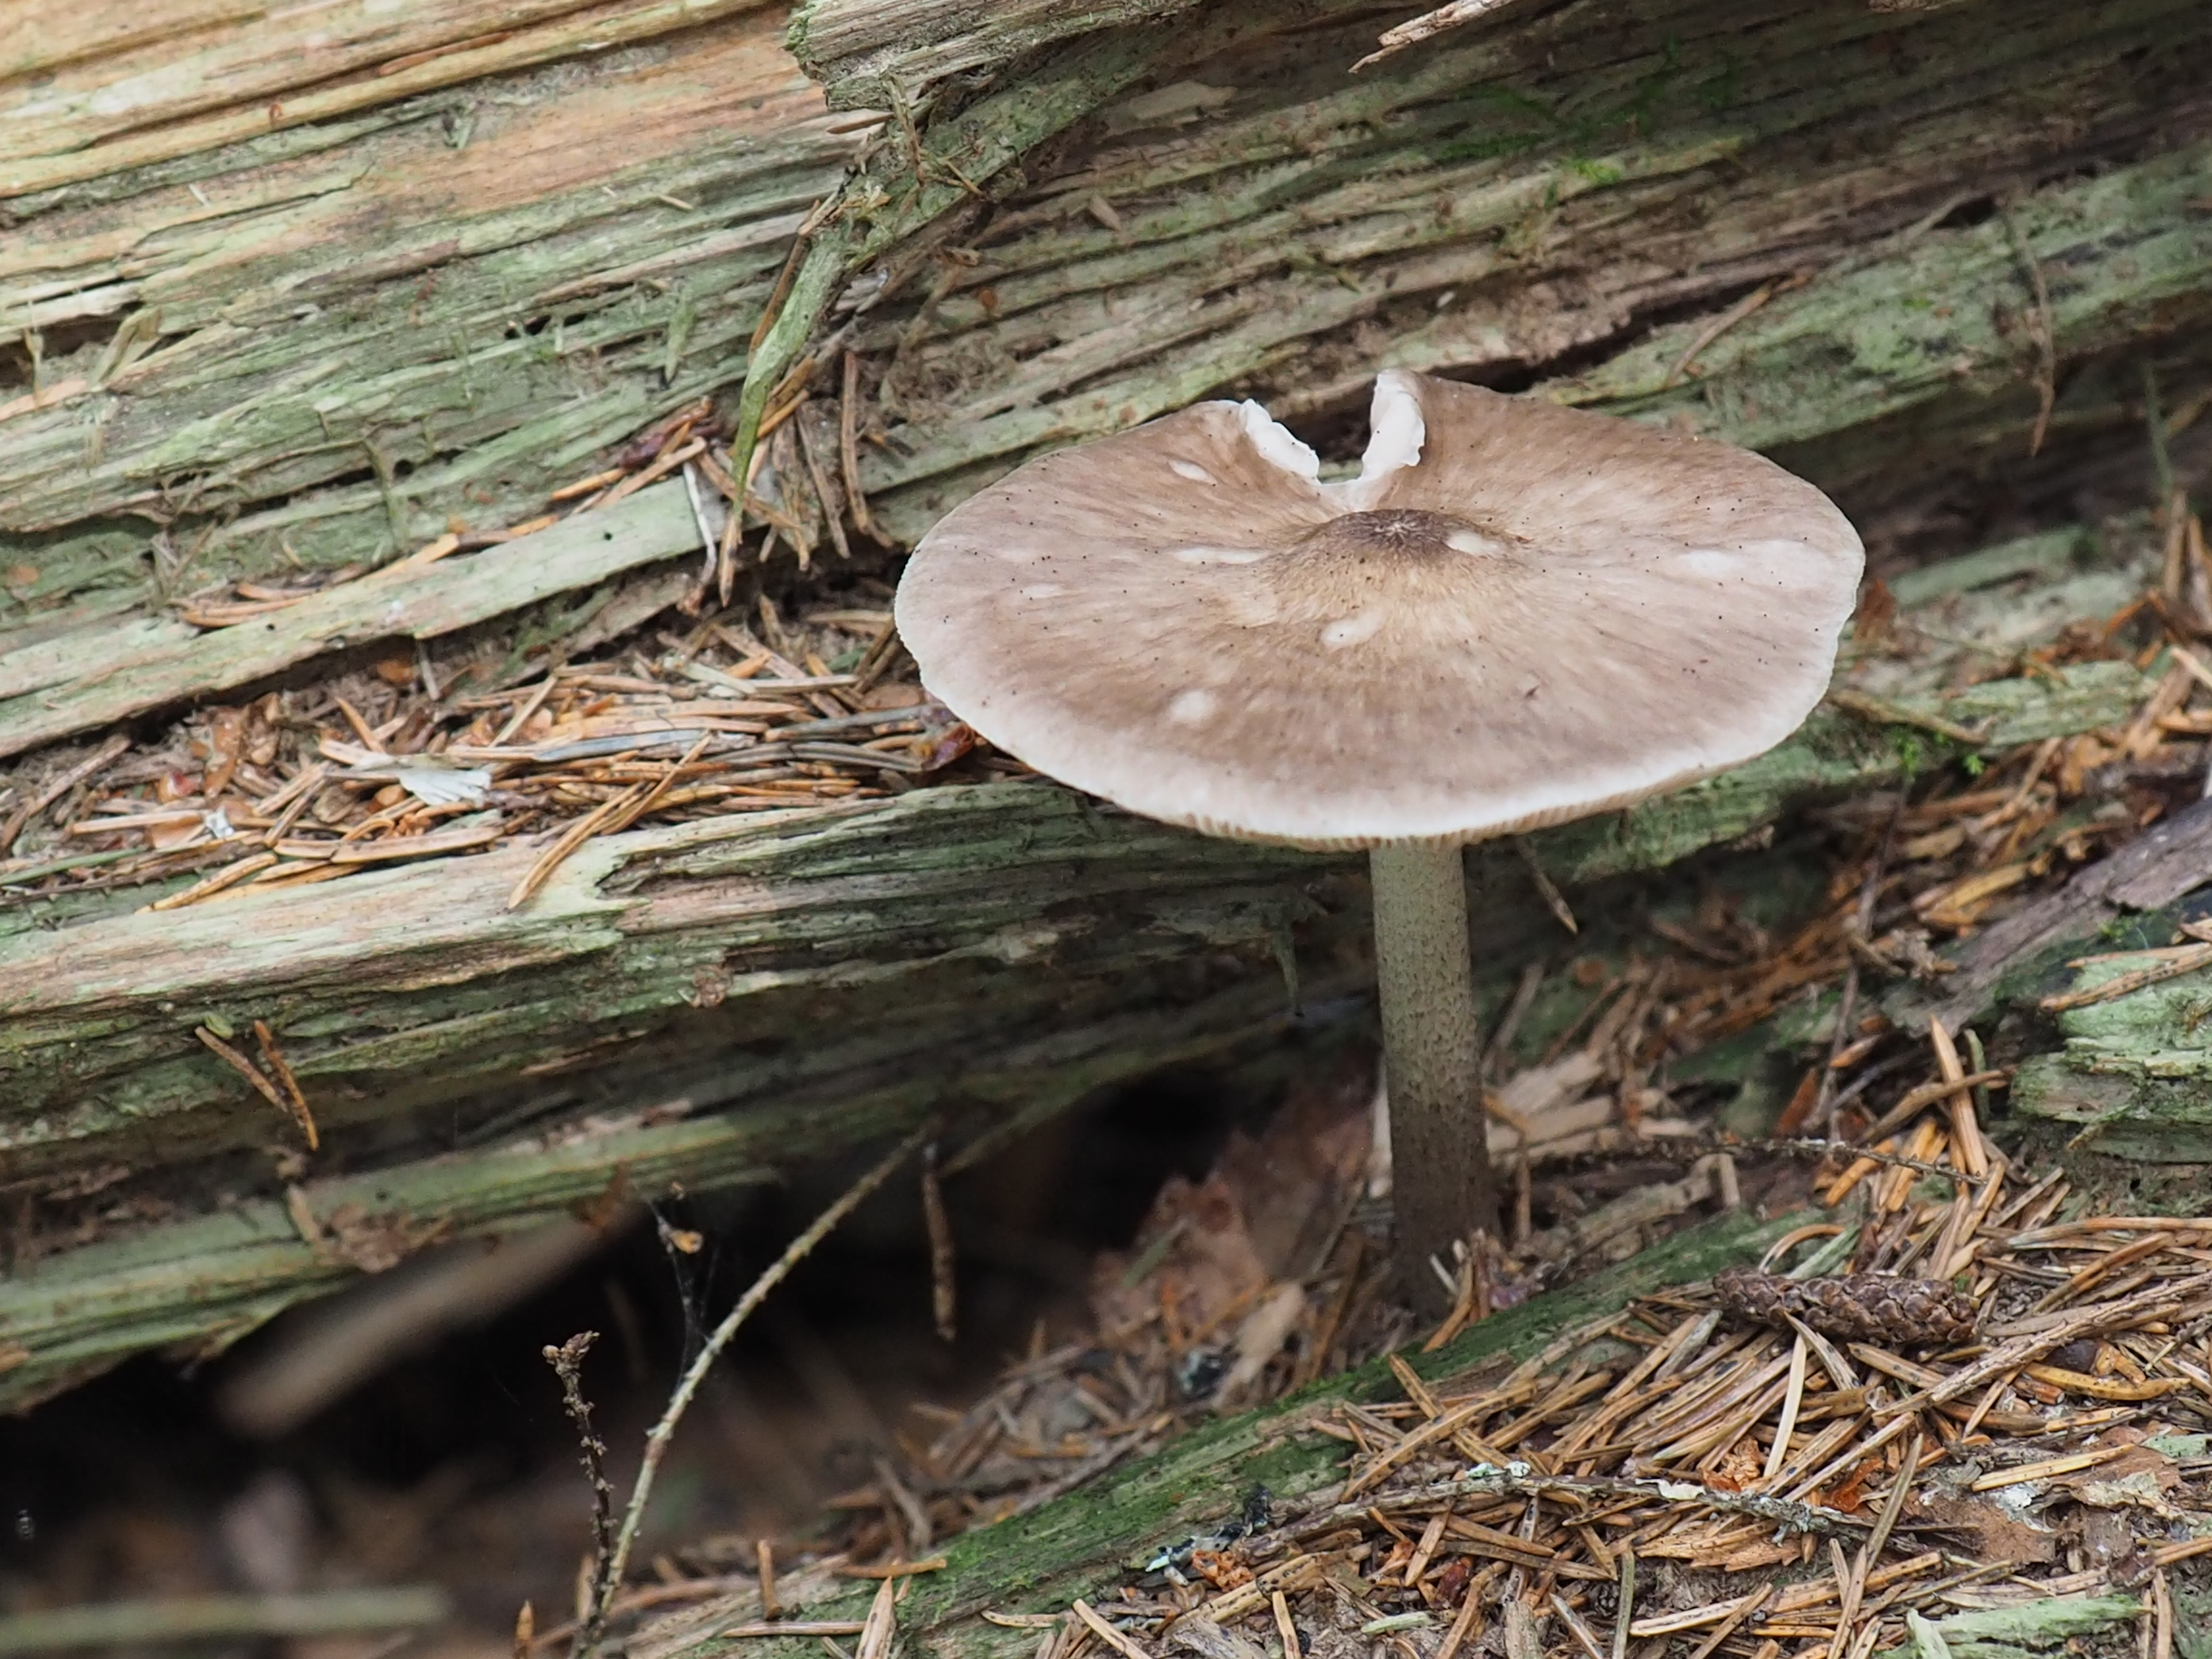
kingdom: Fungi
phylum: Basidiomycota
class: Agaricomycetes
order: Agaricales
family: Pluteaceae
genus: Pluteus
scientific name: Pluteus cervinus
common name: Deer shield
